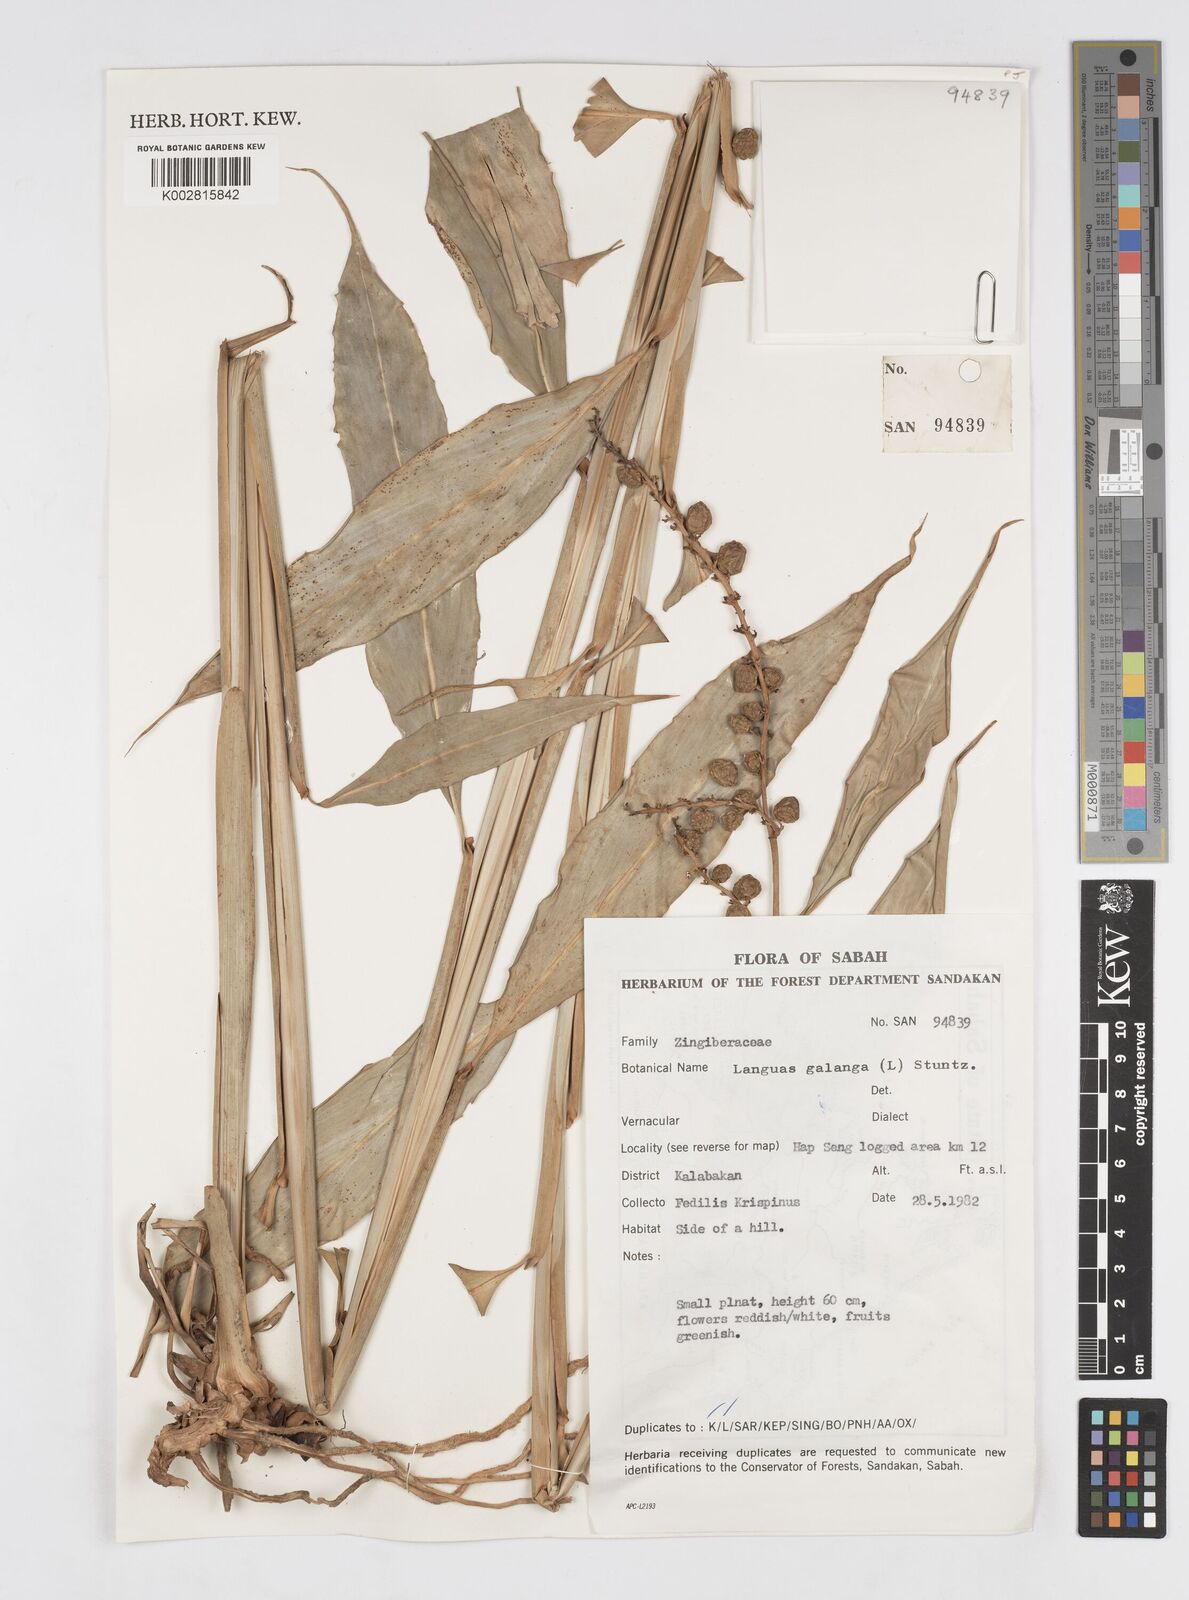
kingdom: Plantae
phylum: Tracheophyta
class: Liliopsida
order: Zingiberales
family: Zingiberaceae
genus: Alpinia
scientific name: Alpinia aquatica
